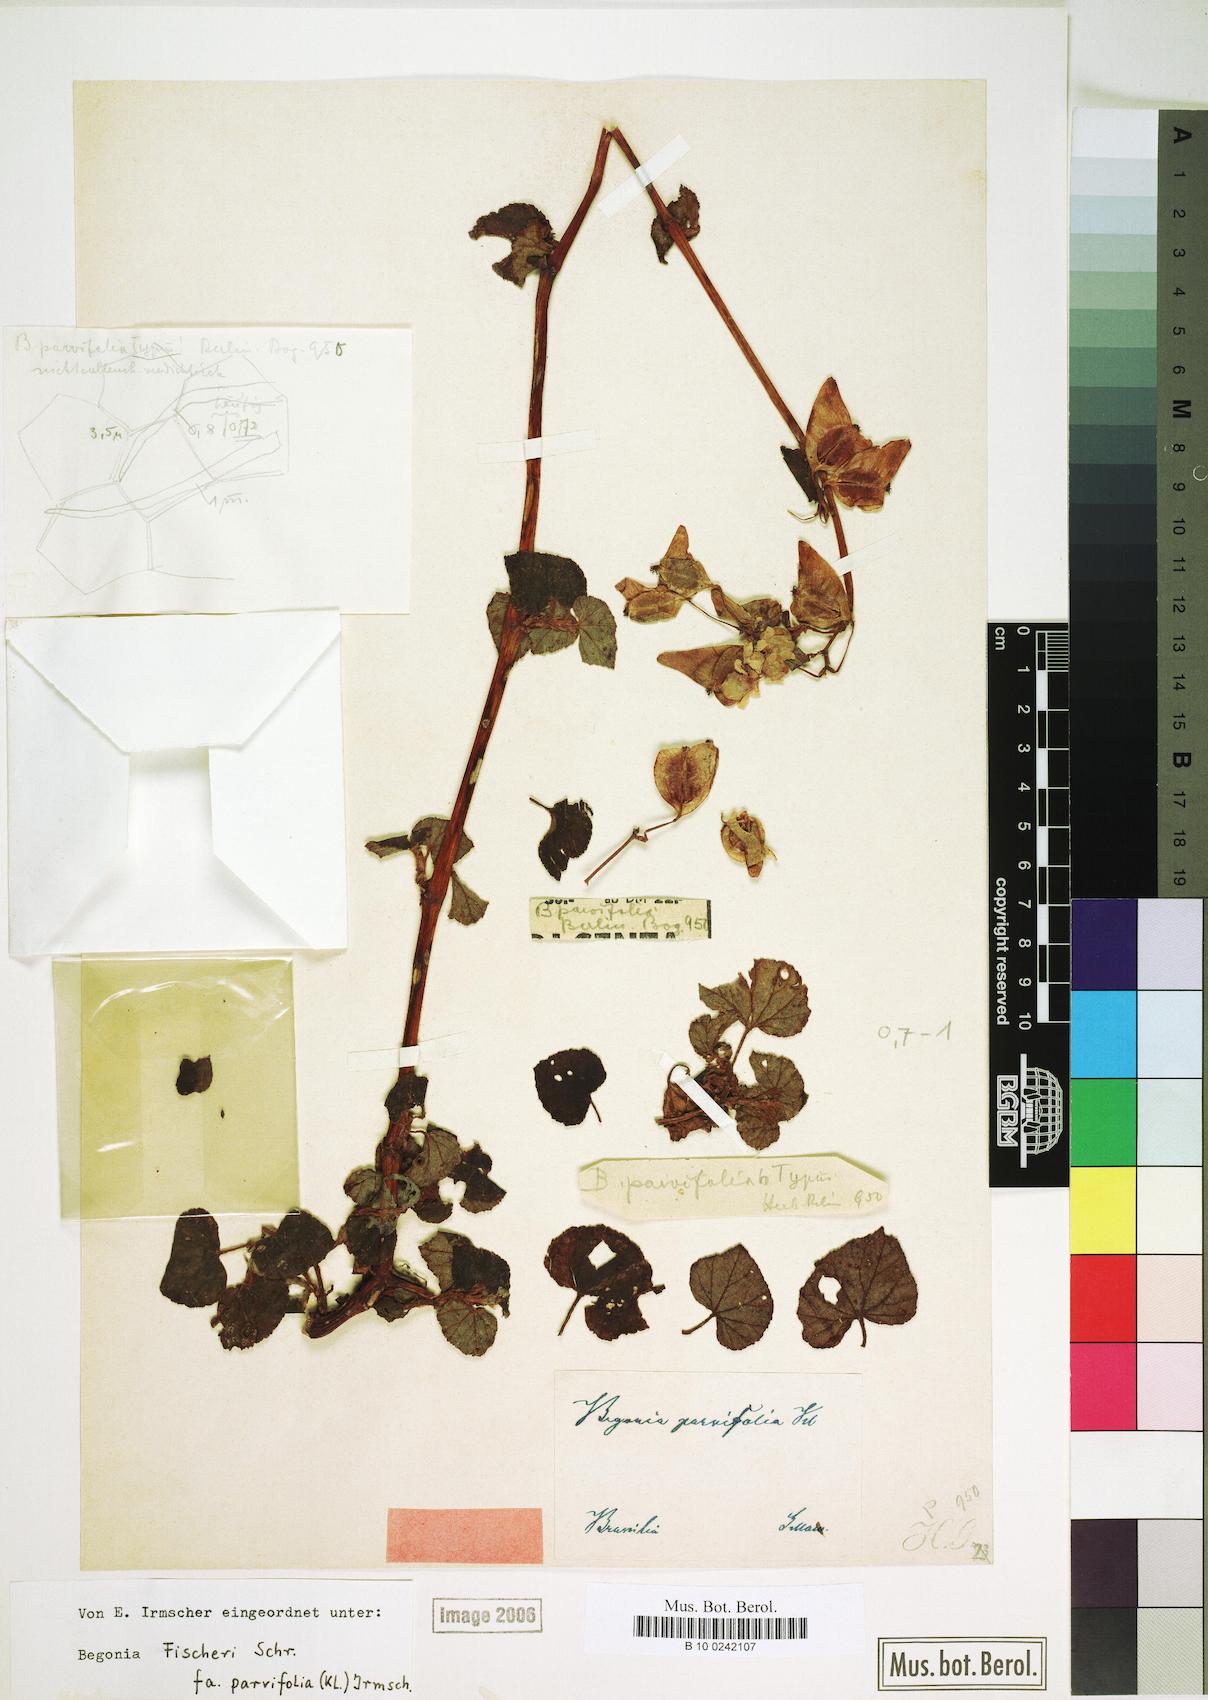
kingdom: Plantae
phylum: Tracheophyta
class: Magnoliopsida
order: Cucurbitales
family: Begoniaceae
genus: Begonia
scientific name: Begonia fischeri
